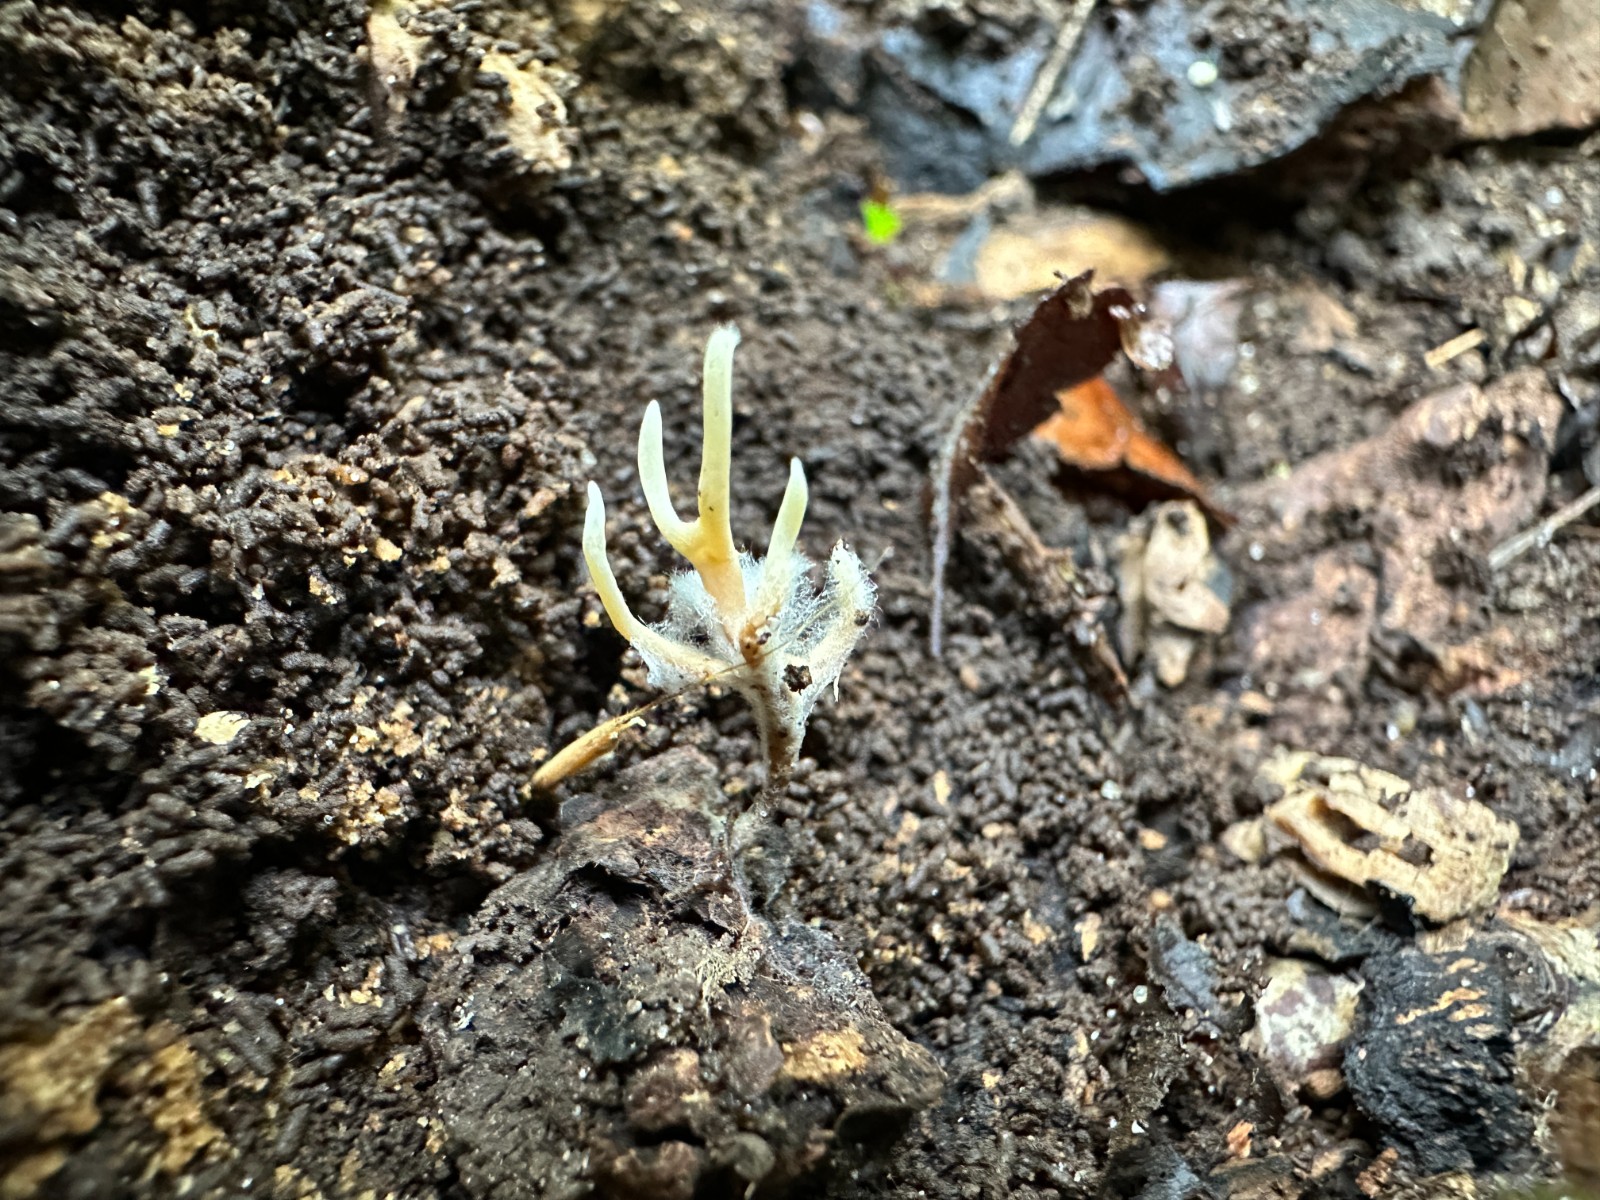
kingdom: Fungi
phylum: Basidiomycota
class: Agaricomycetes
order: Agaricales
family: Clavariaceae
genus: Ramariopsis
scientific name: Ramariopsis
